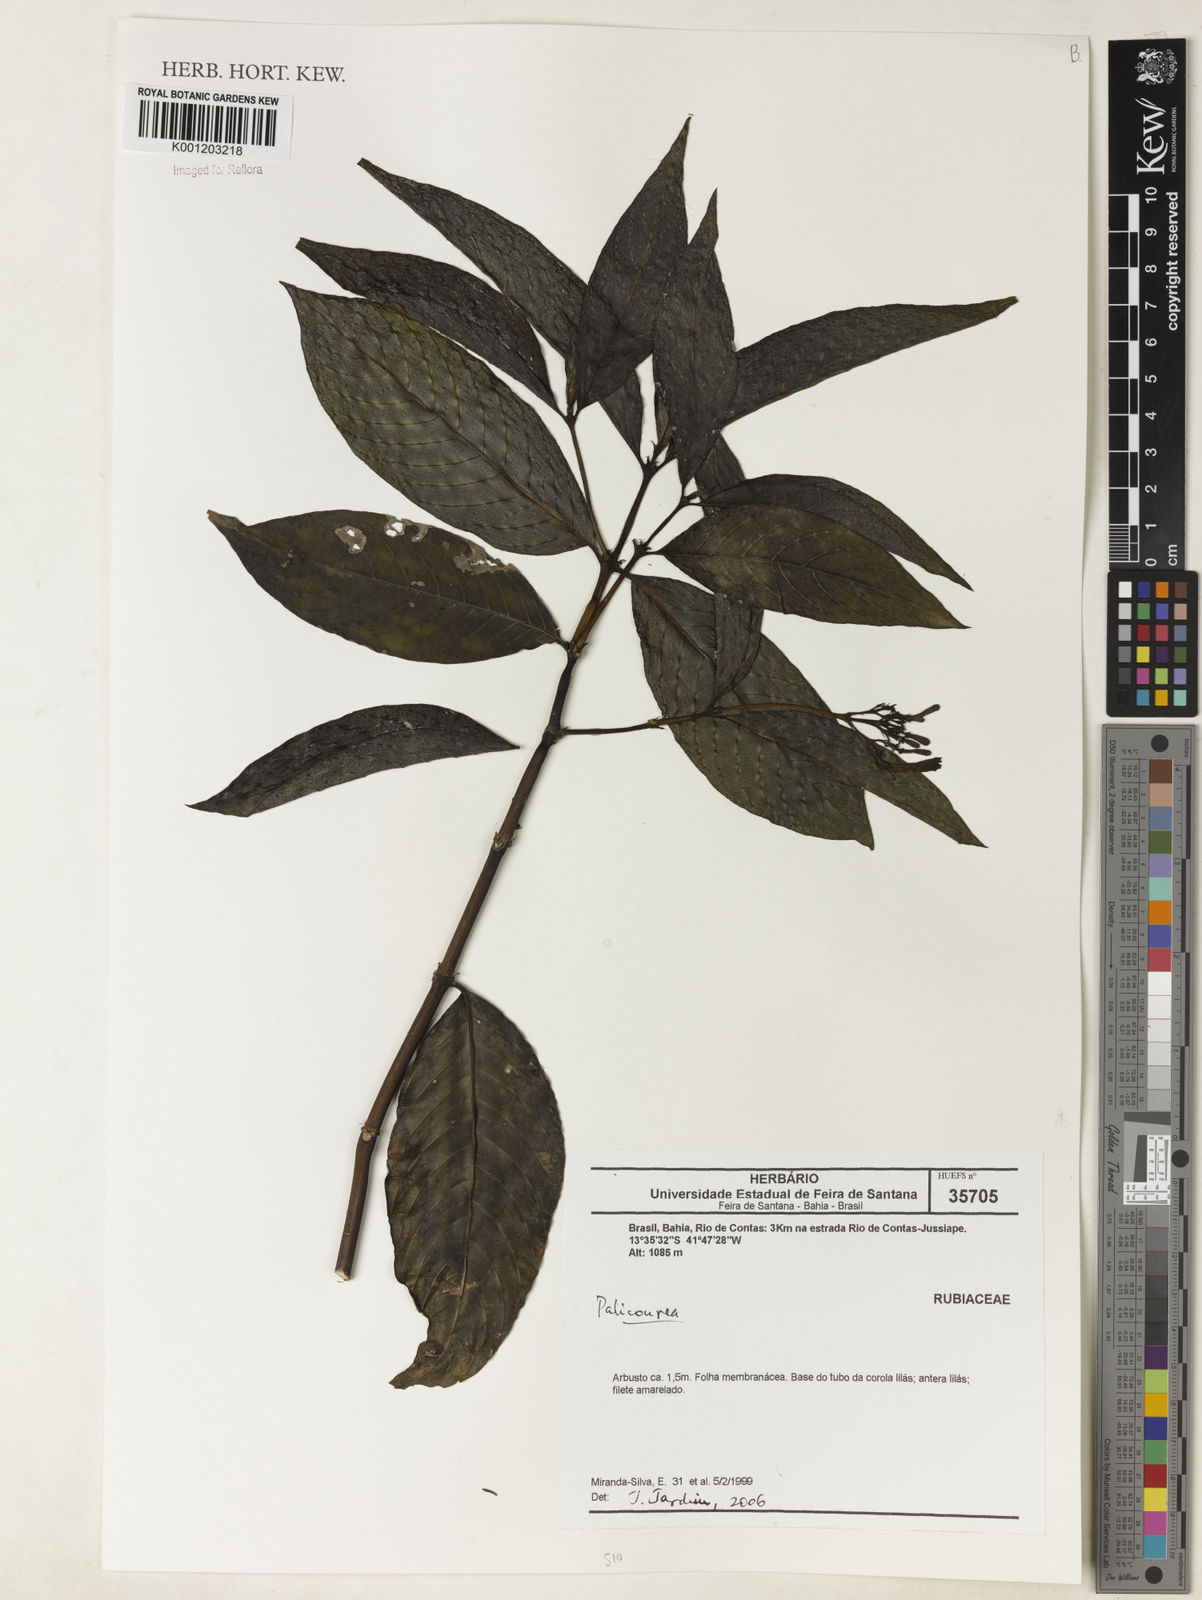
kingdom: Plantae
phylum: Tracheophyta
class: Magnoliopsida
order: Gentianales
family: Rubiaceae
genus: Palicourea
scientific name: Palicourea
